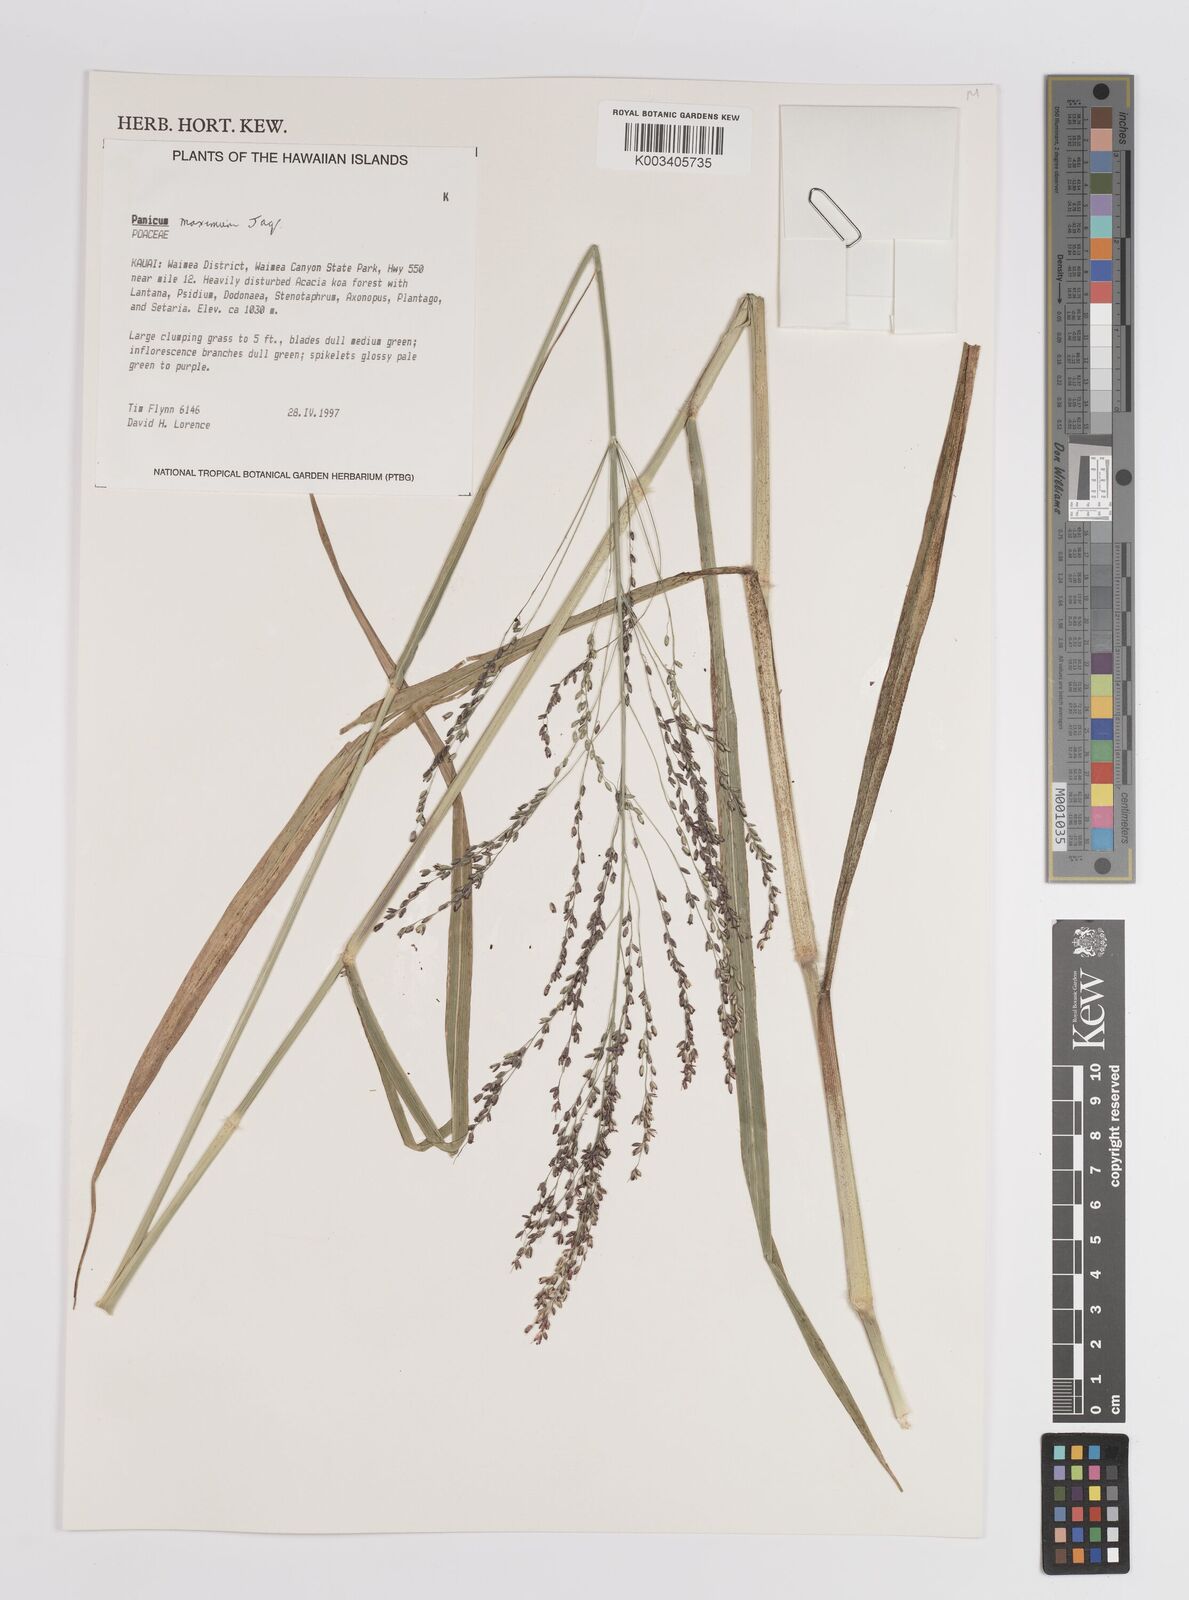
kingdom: Plantae
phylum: Tracheophyta
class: Liliopsida
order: Poales
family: Poaceae
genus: Megathyrsus
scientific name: Megathyrsus maximus
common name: Guineagrass
